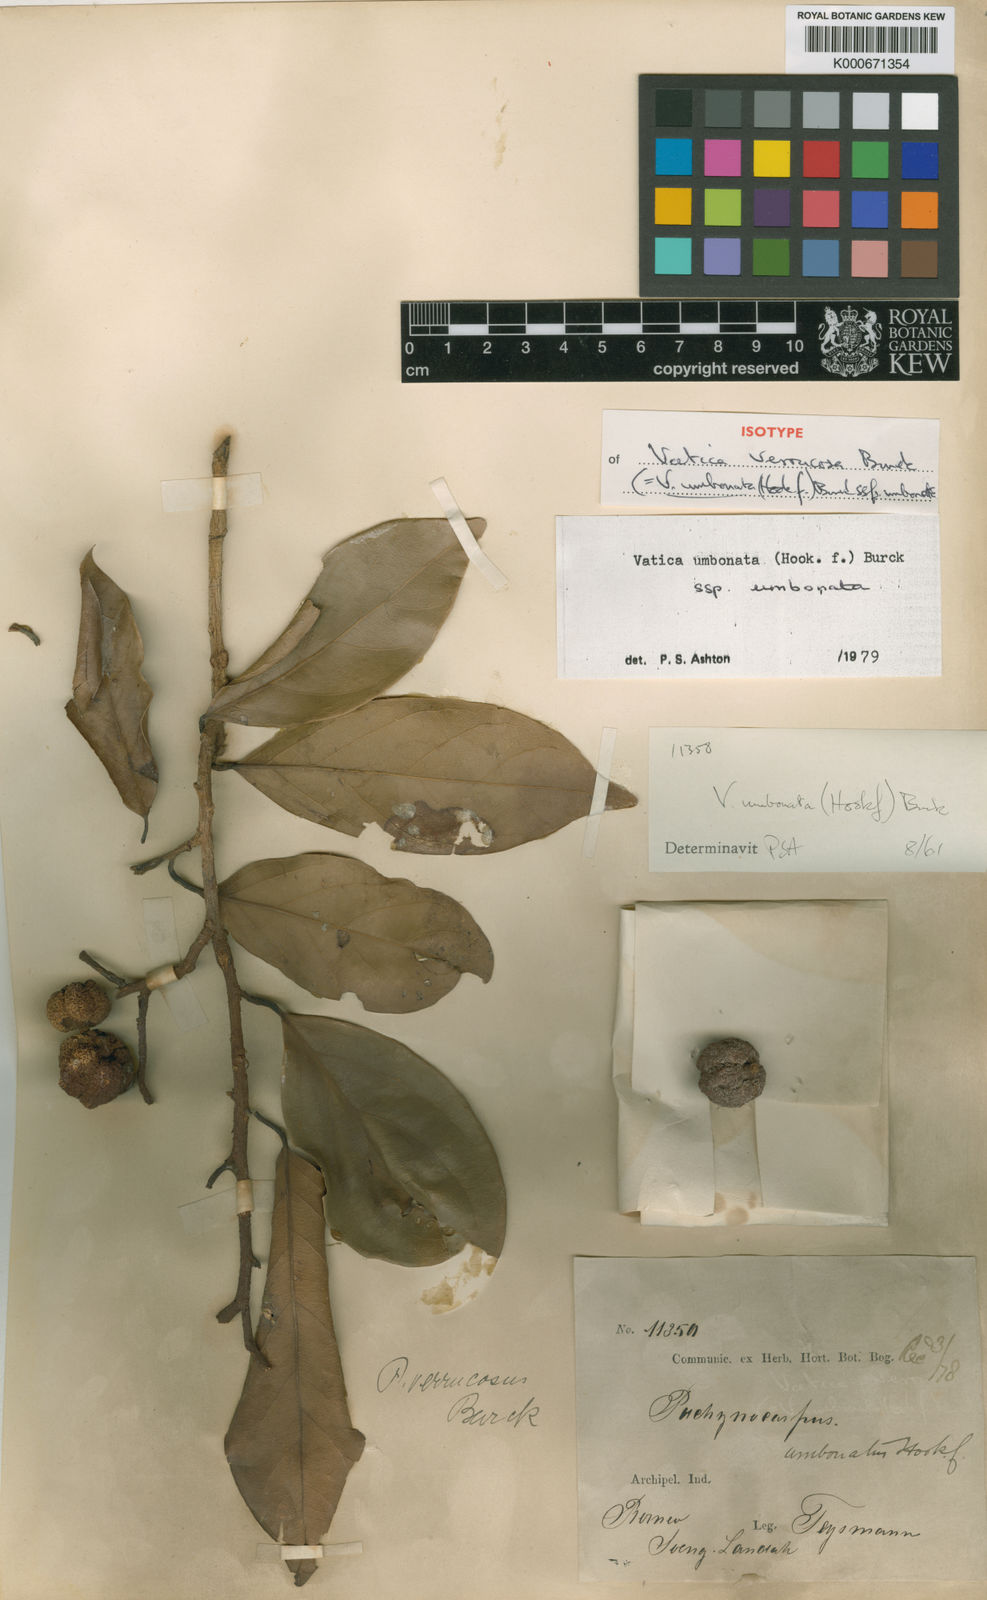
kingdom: Plantae
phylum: Tracheophyta
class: Magnoliopsida
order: Malvales
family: Dipterocarpaceae
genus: Vatica
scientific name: Vatica umbonata
